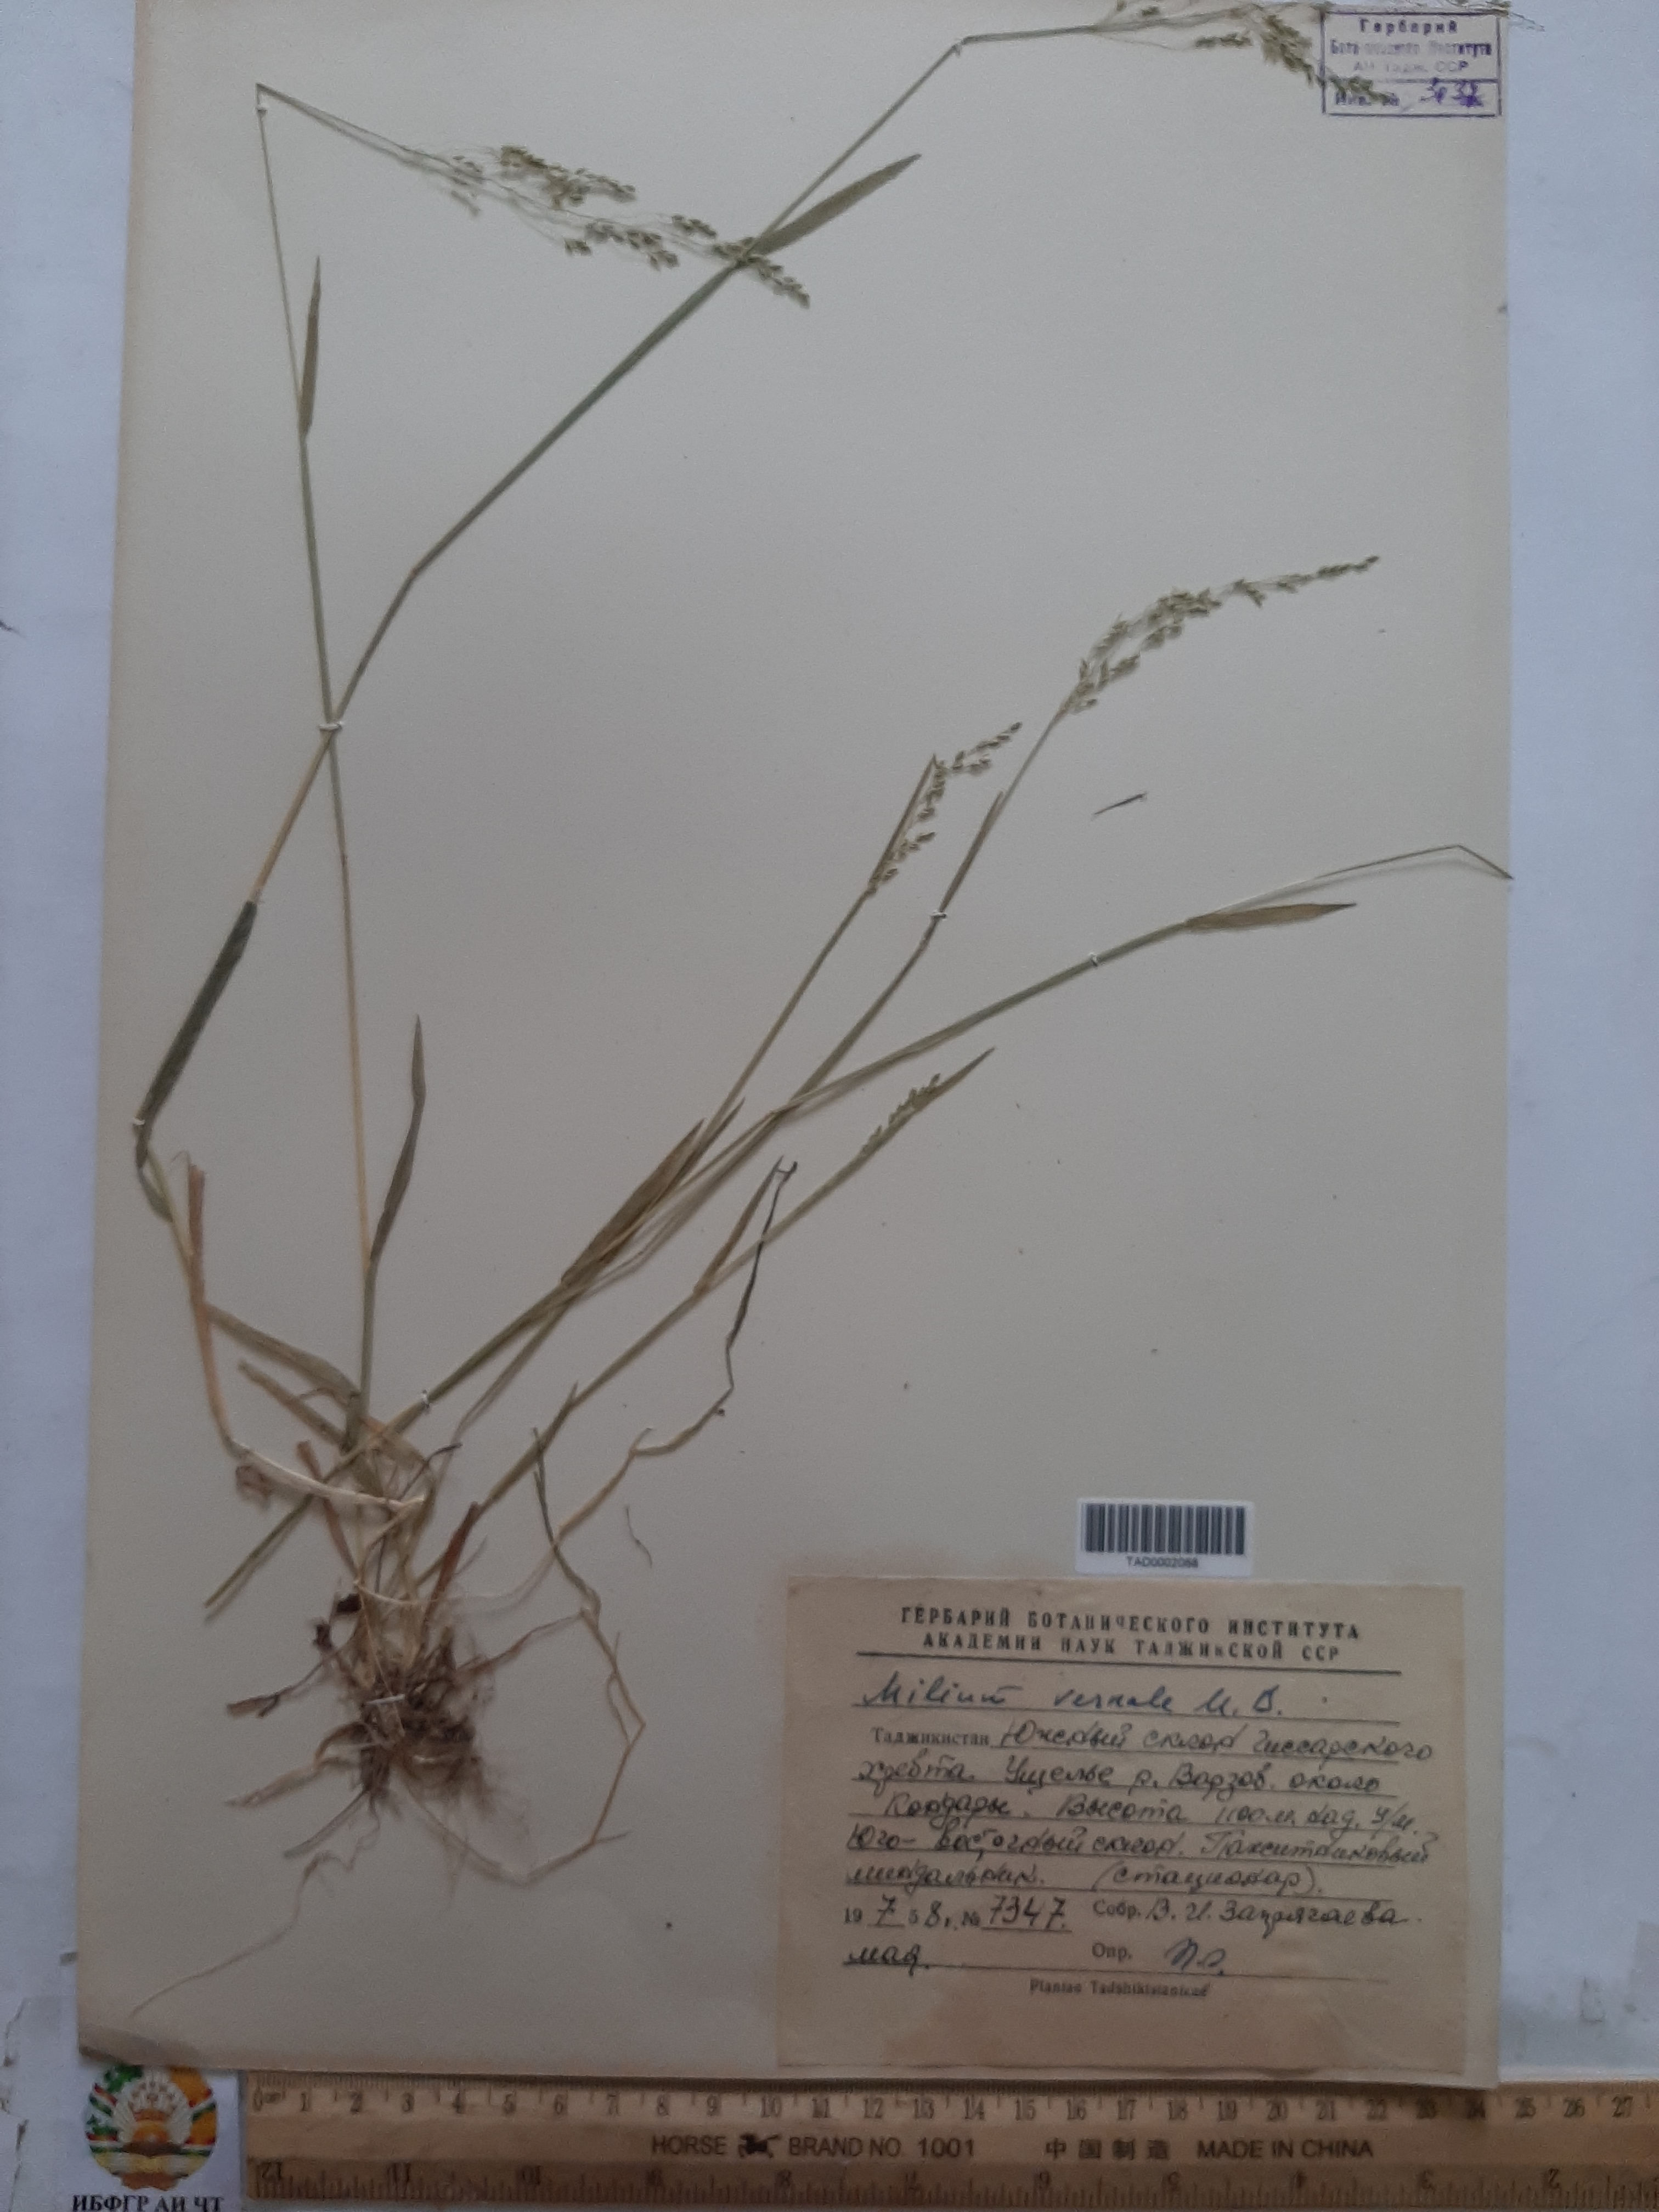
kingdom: Plantae
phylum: Tracheophyta
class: Liliopsida
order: Poales
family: Poaceae
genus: Milium
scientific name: Milium vernale
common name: Early millet
